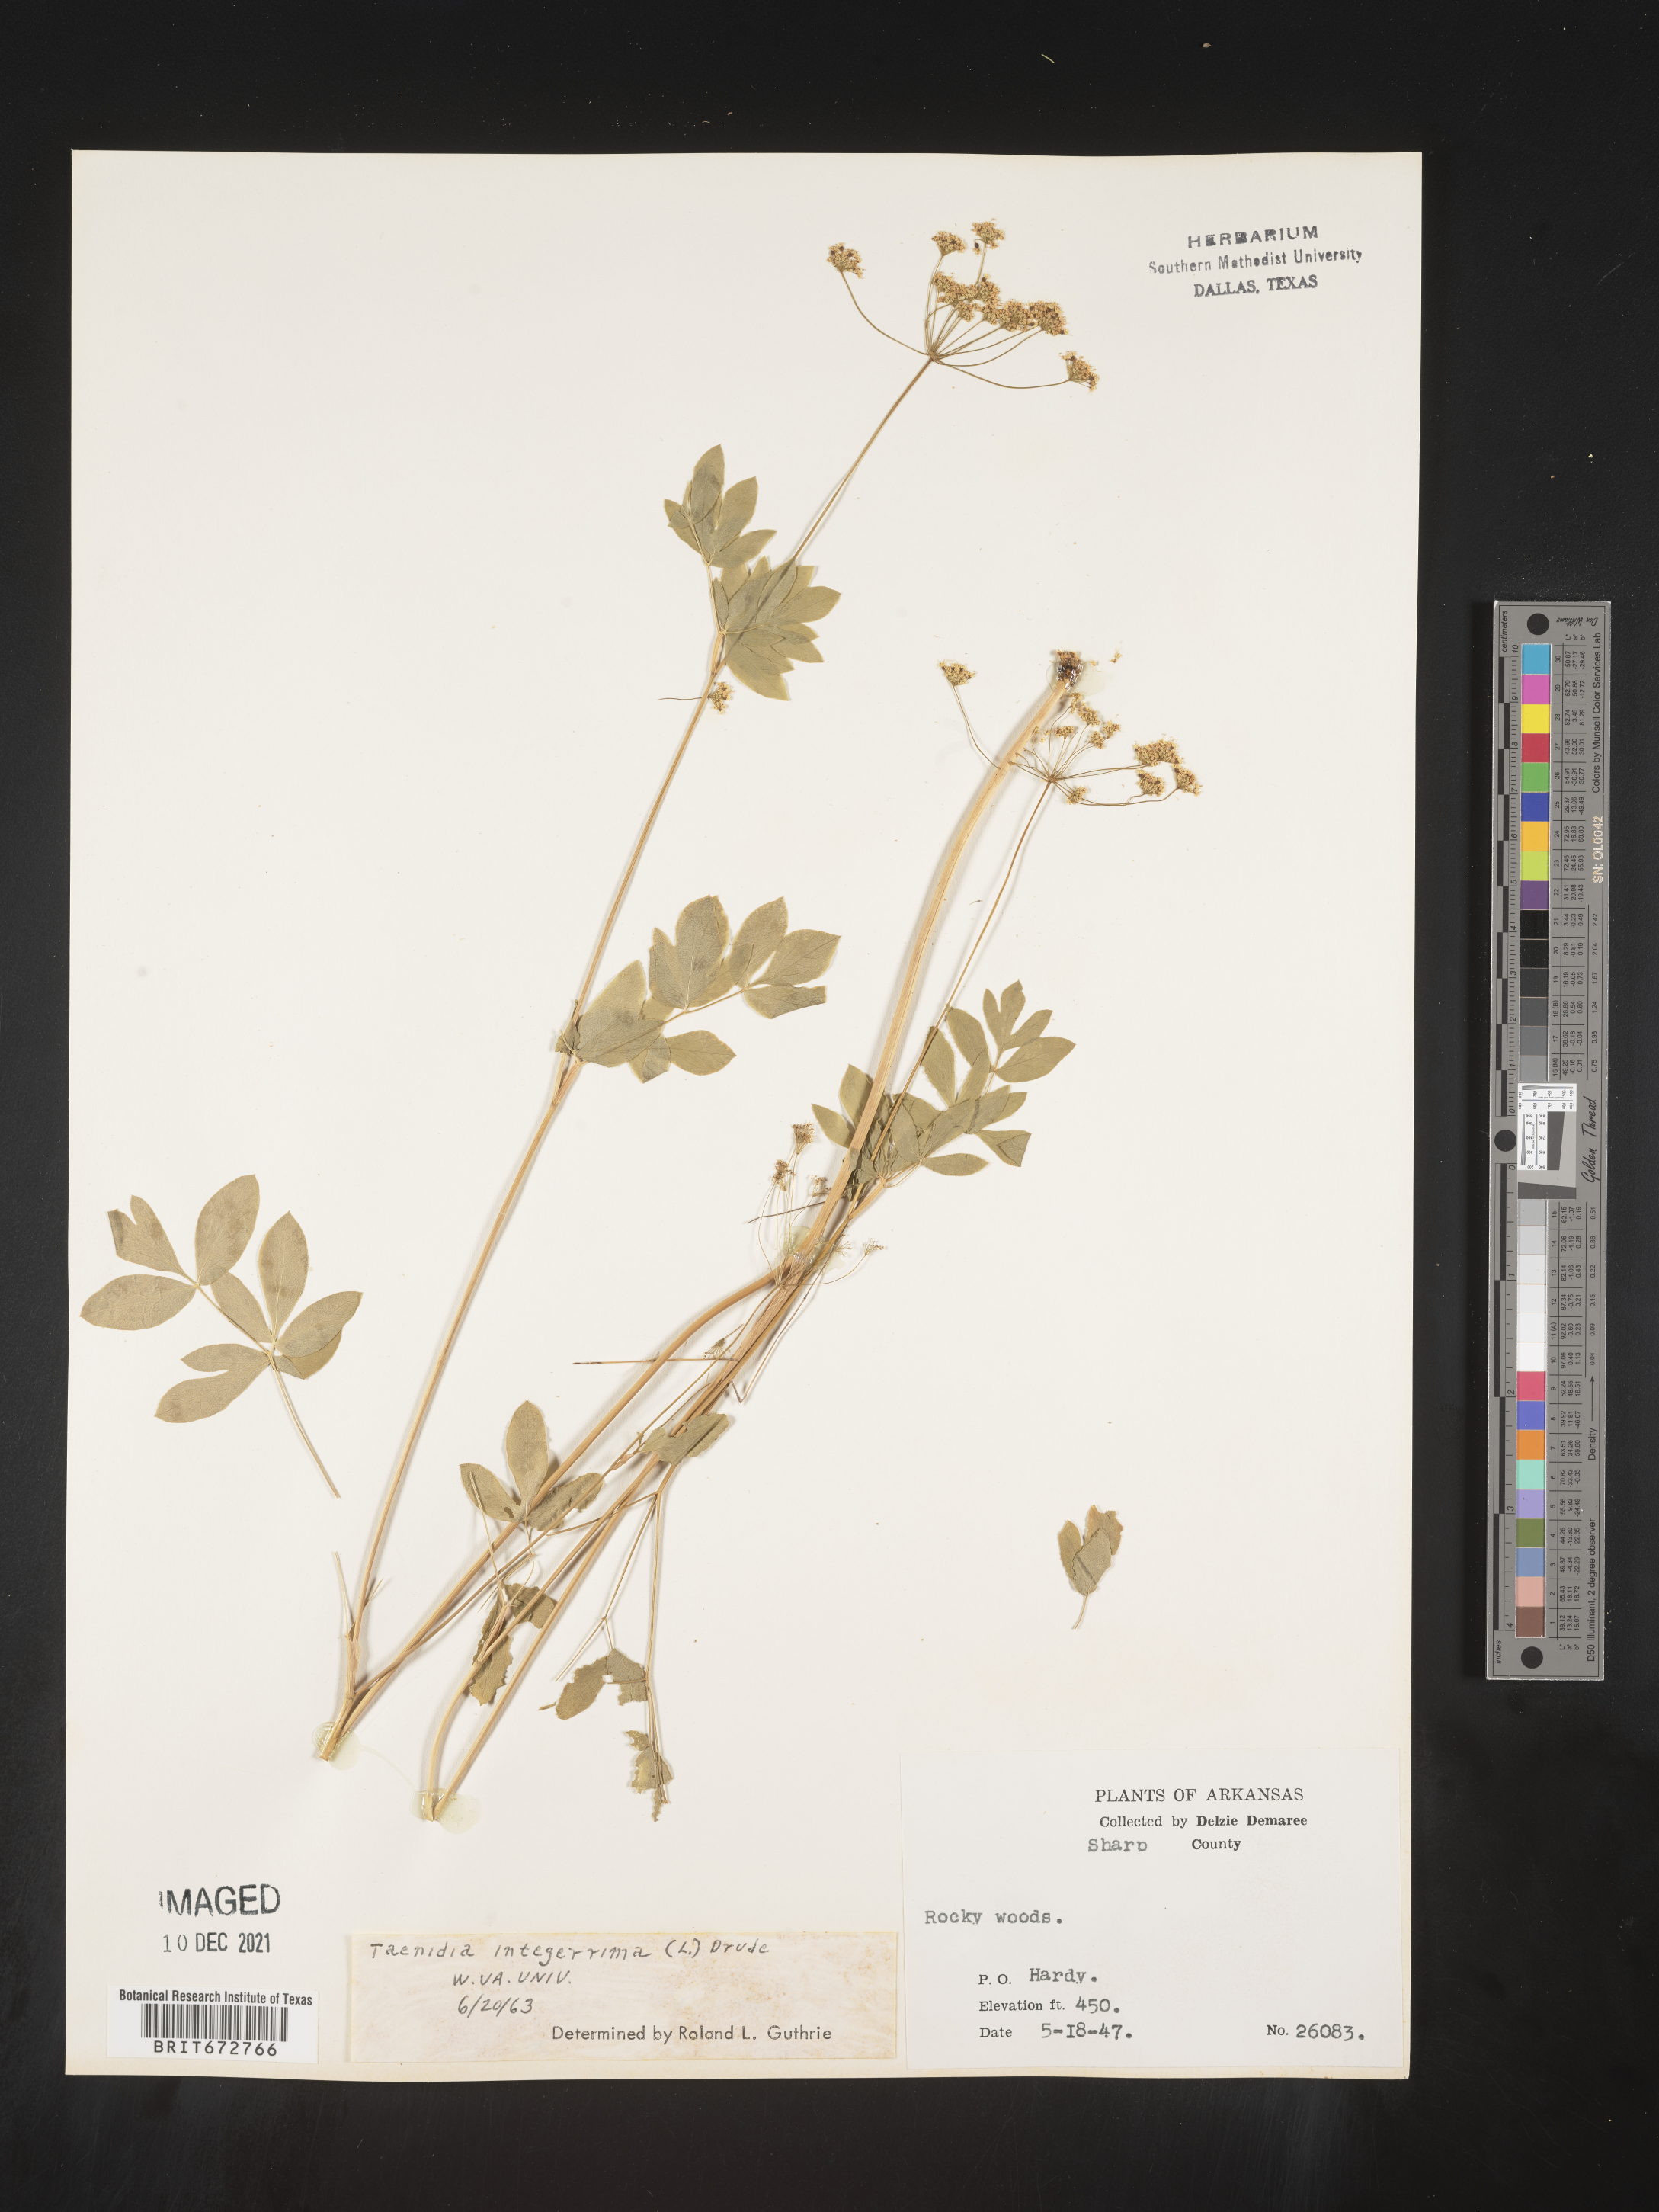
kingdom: Plantae
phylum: Tracheophyta
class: Magnoliopsida
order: Apiales
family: Apiaceae
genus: Taenidia
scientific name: Taenidia integerrima
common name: Golden alexander
